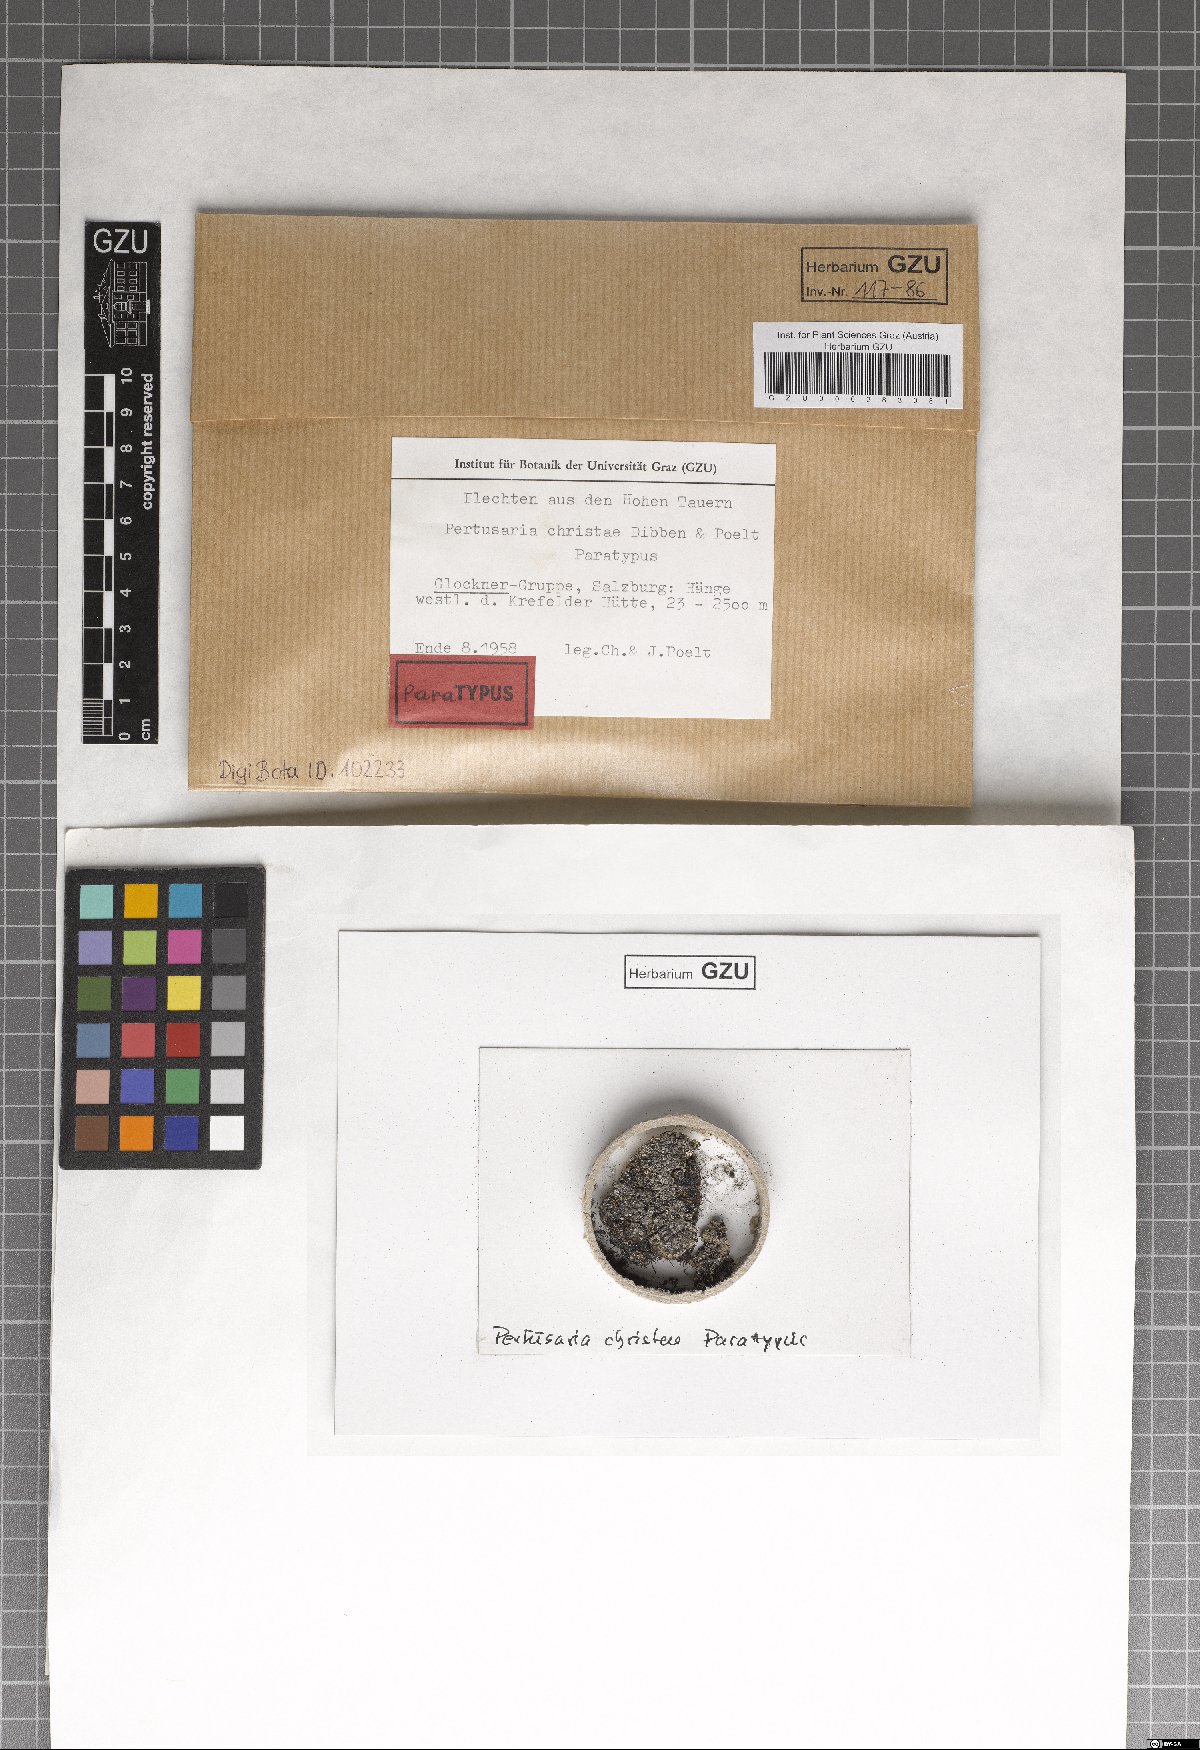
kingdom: Fungi
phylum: Ascomycota
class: Lecanoromycetes
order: Pertusariales
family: Pertusariaceae
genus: Pertusaria
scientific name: Pertusaria
